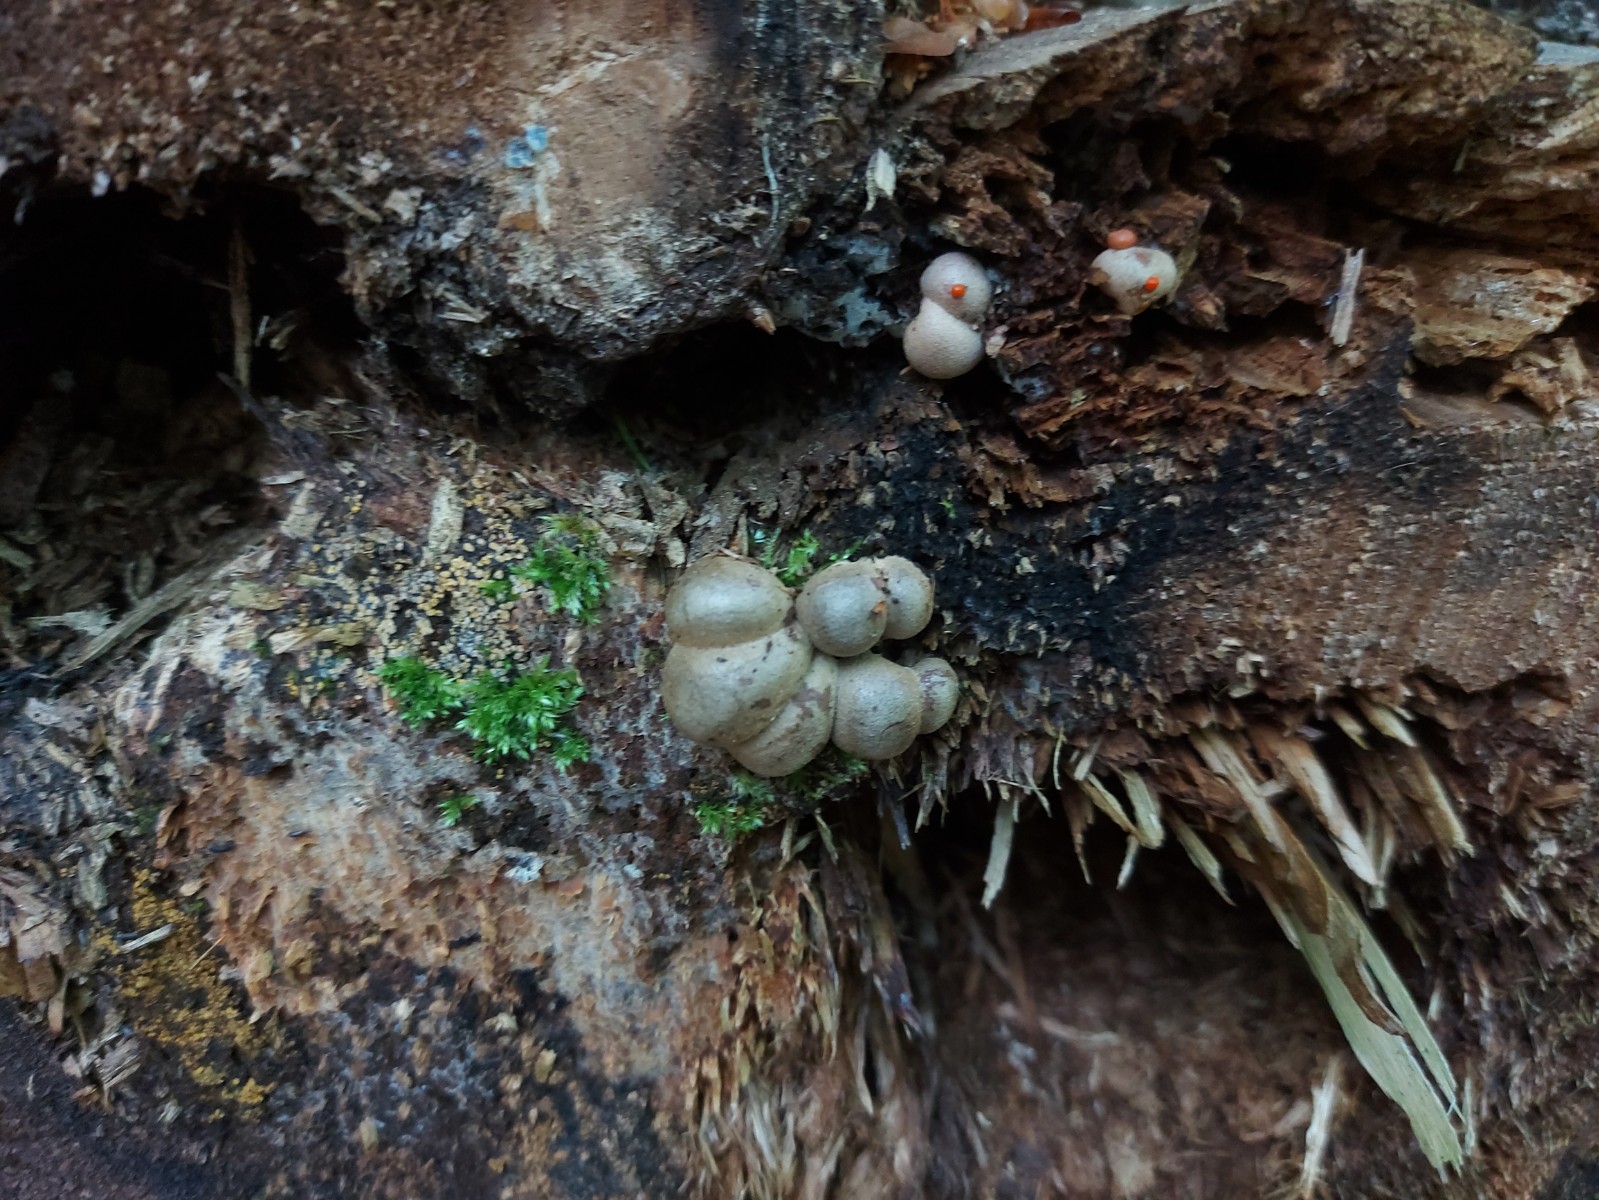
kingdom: Protozoa
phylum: Mycetozoa
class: Myxomycetes
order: Cribrariales
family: Tubiferaceae
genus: Lycogala
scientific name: Lycogala epidendrum
